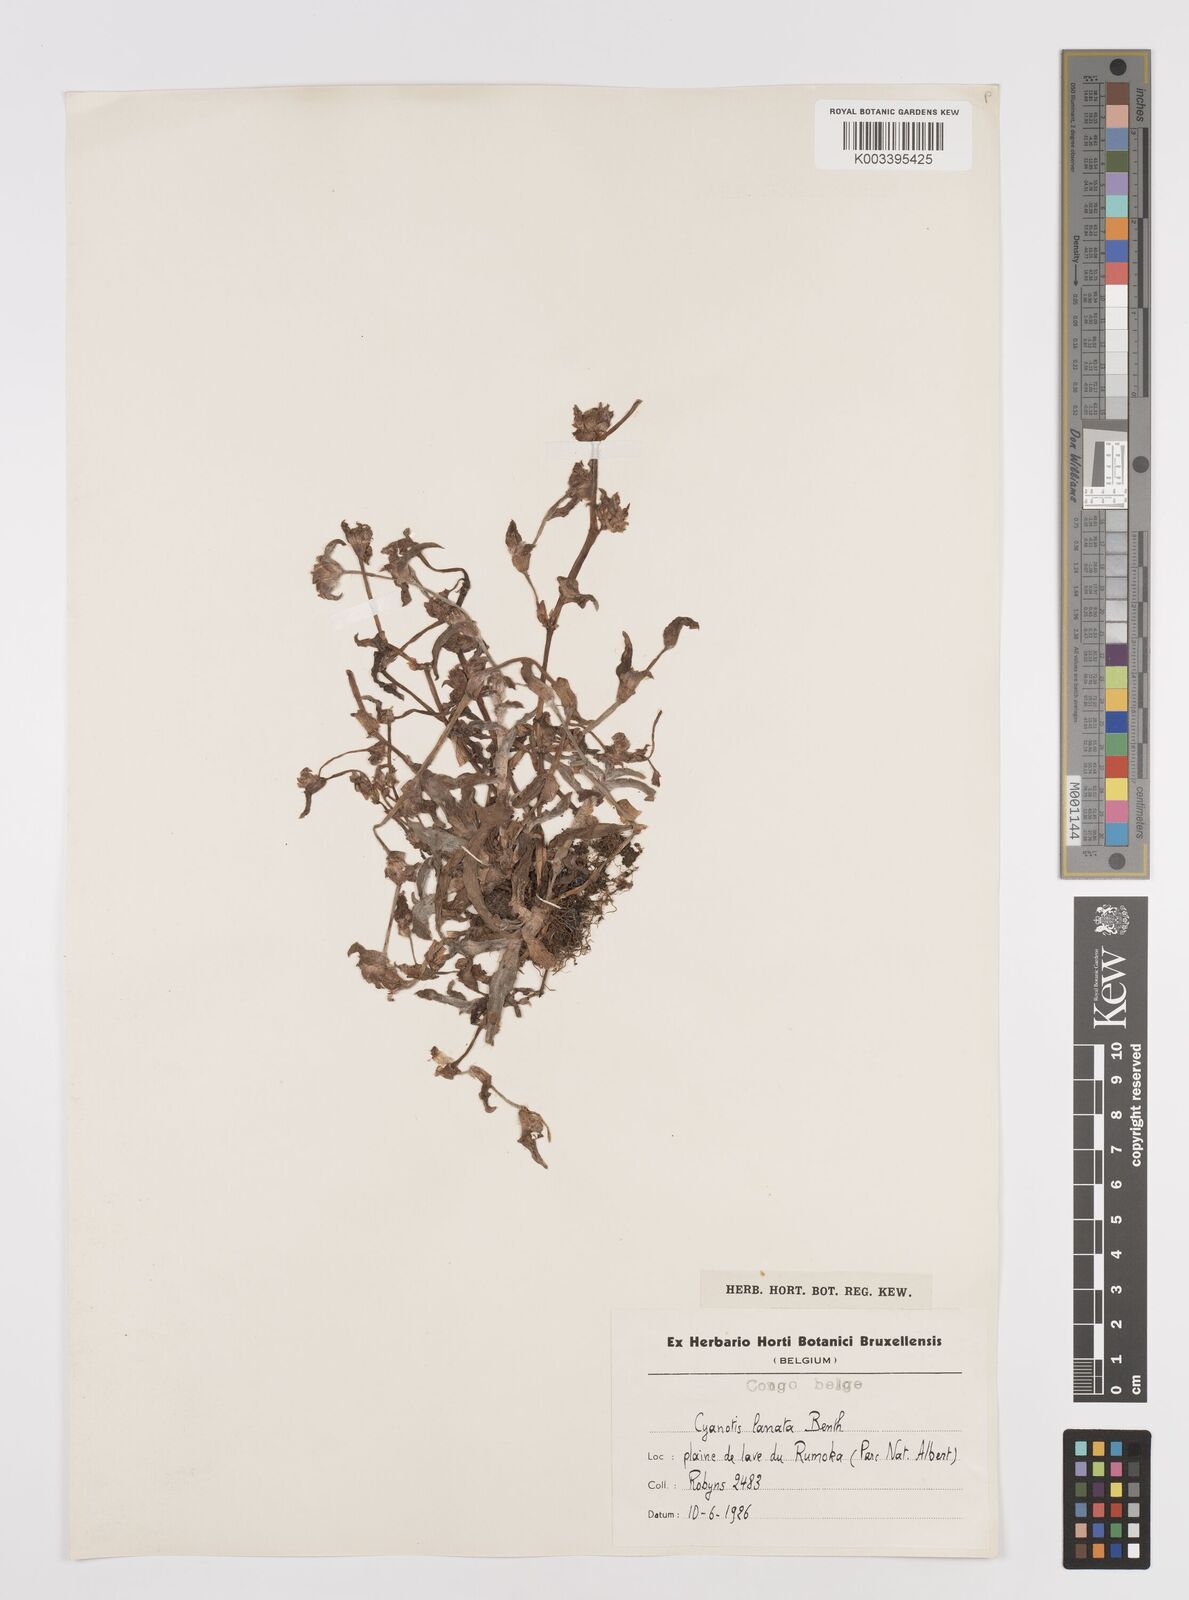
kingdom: Plantae
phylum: Tracheophyta
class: Liliopsida
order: Commelinales
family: Commelinaceae
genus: Cyanotis
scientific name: Cyanotis lanata
